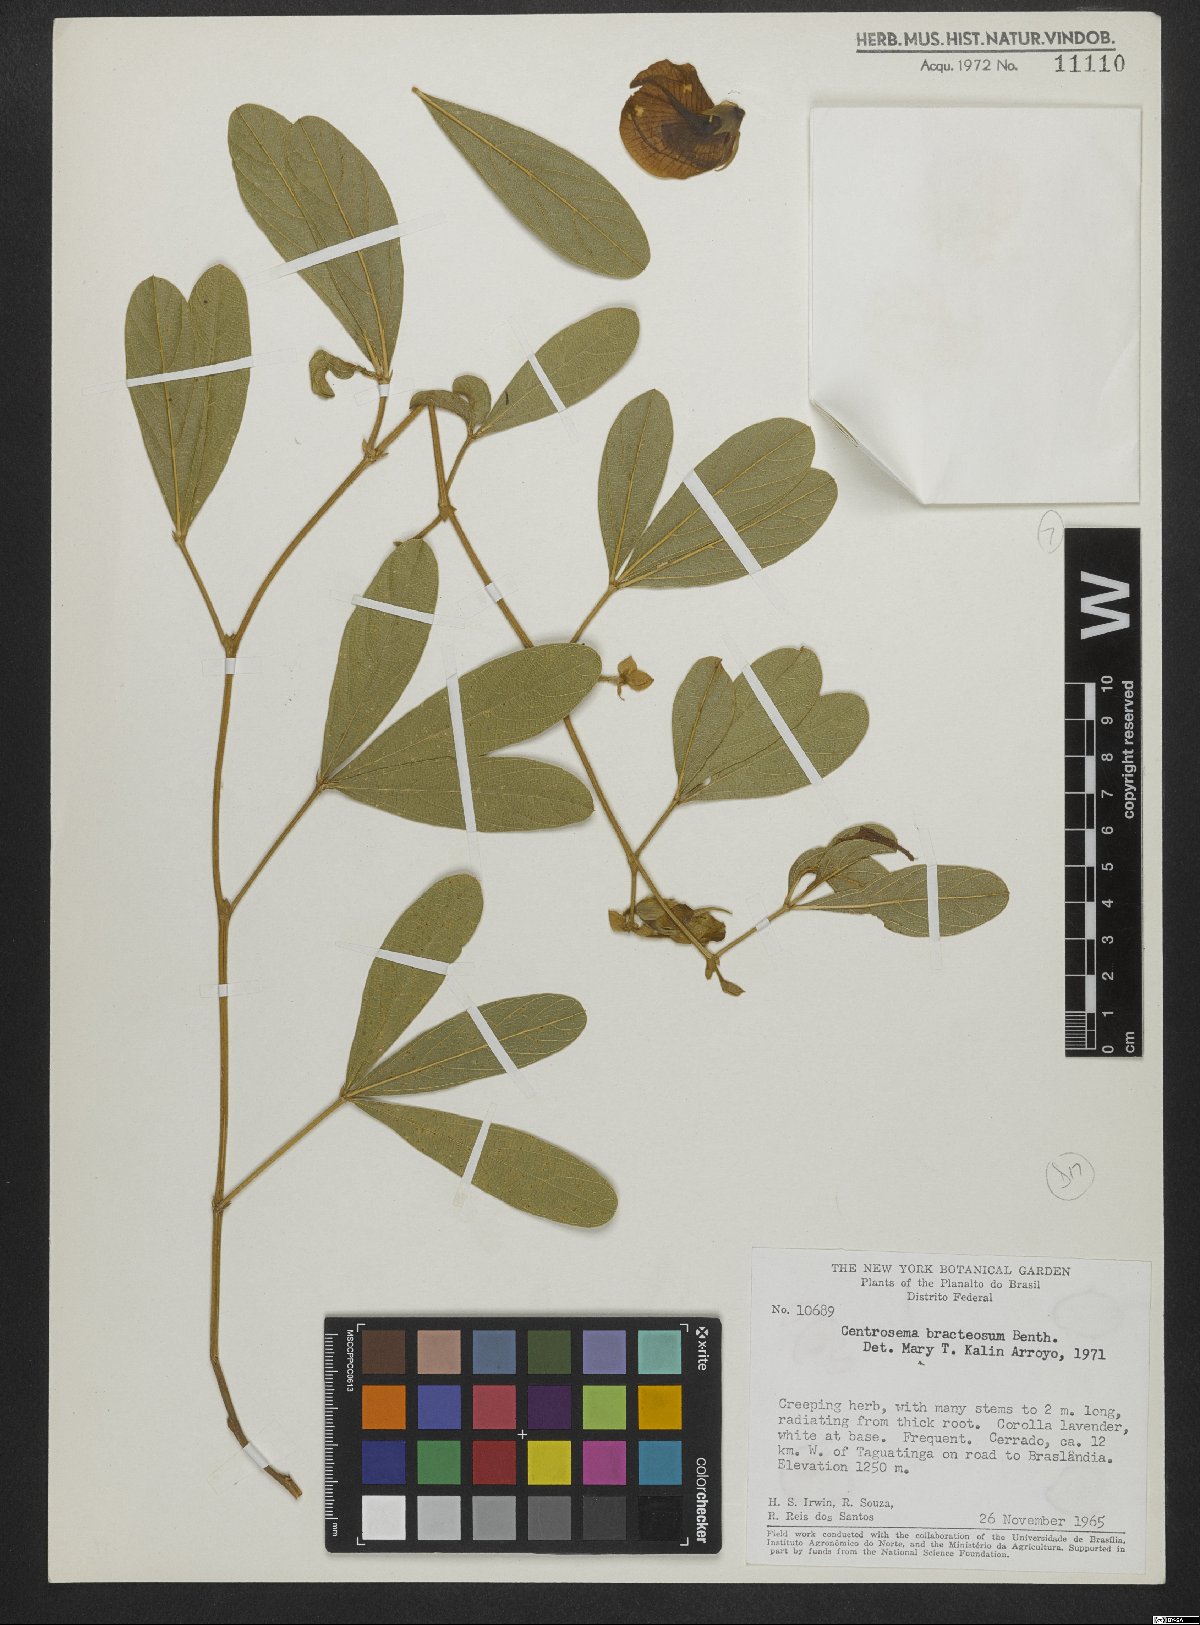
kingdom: Plantae
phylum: Tracheophyta
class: Magnoliopsida
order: Fabales
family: Fabaceae
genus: Centrosema
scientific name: Centrosema bracteosum
